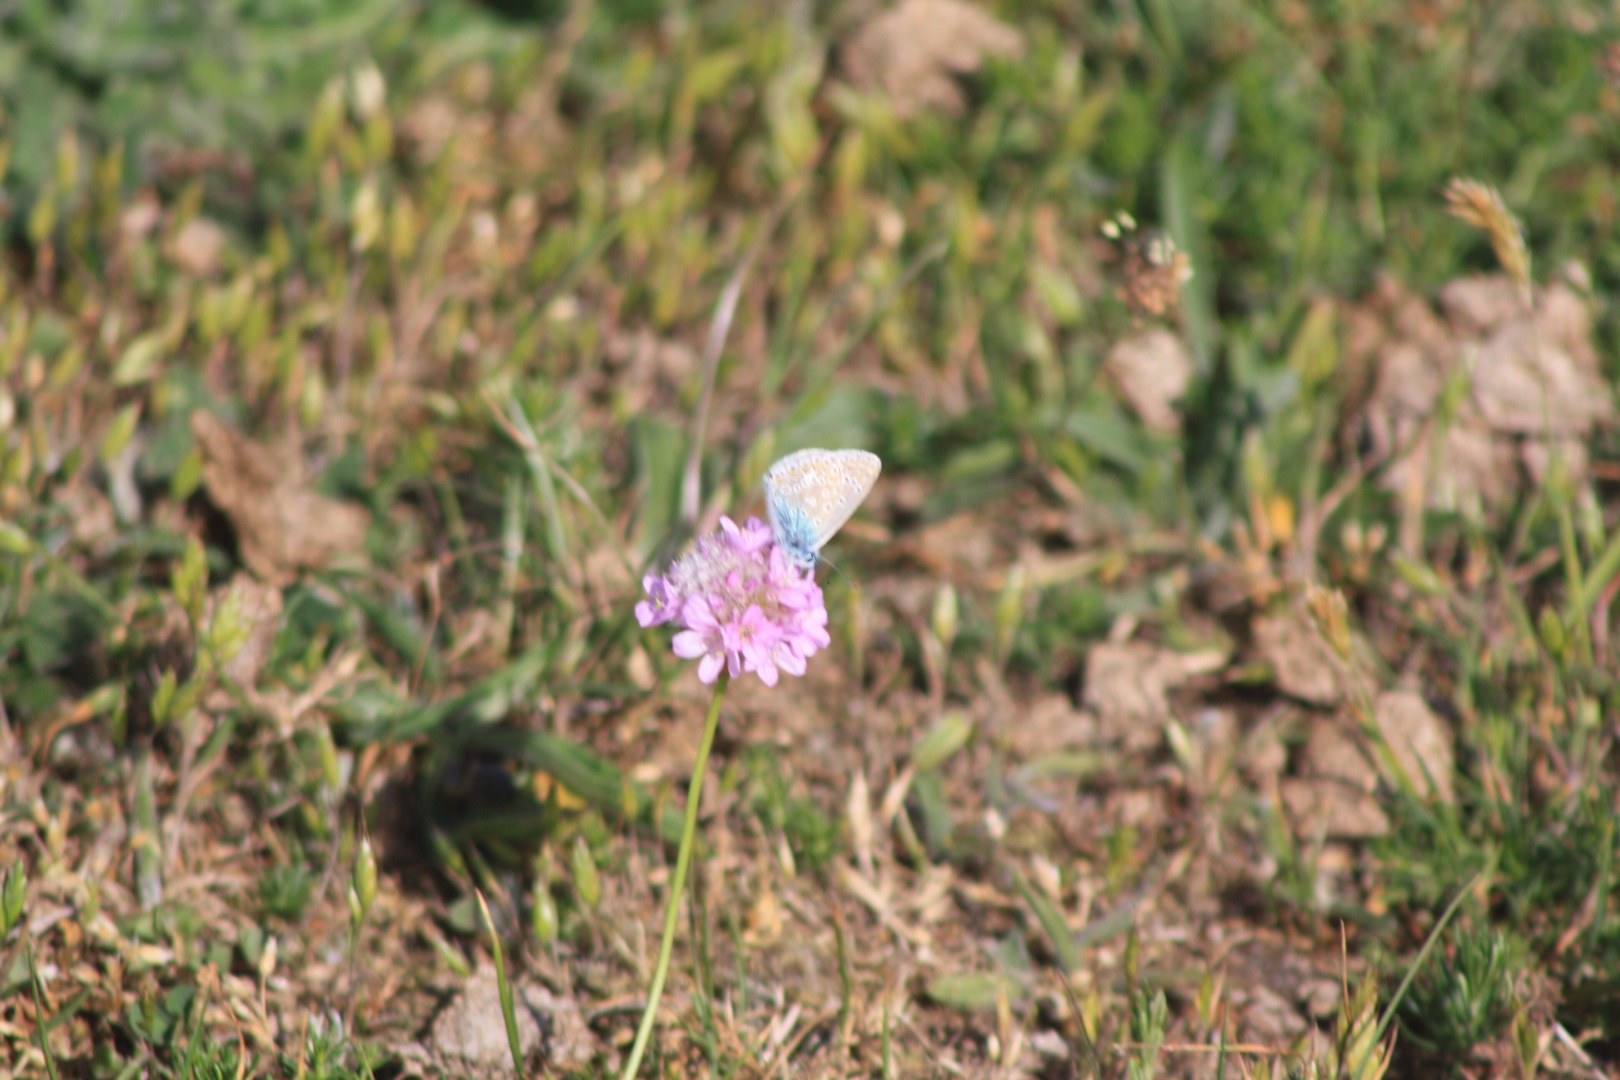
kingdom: Animalia
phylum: Arthropoda
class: Insecta
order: Lepidoptera
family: Lycaenidae
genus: Polyommatus
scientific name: Polyommatus icarus
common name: Almindelig blåfugl
